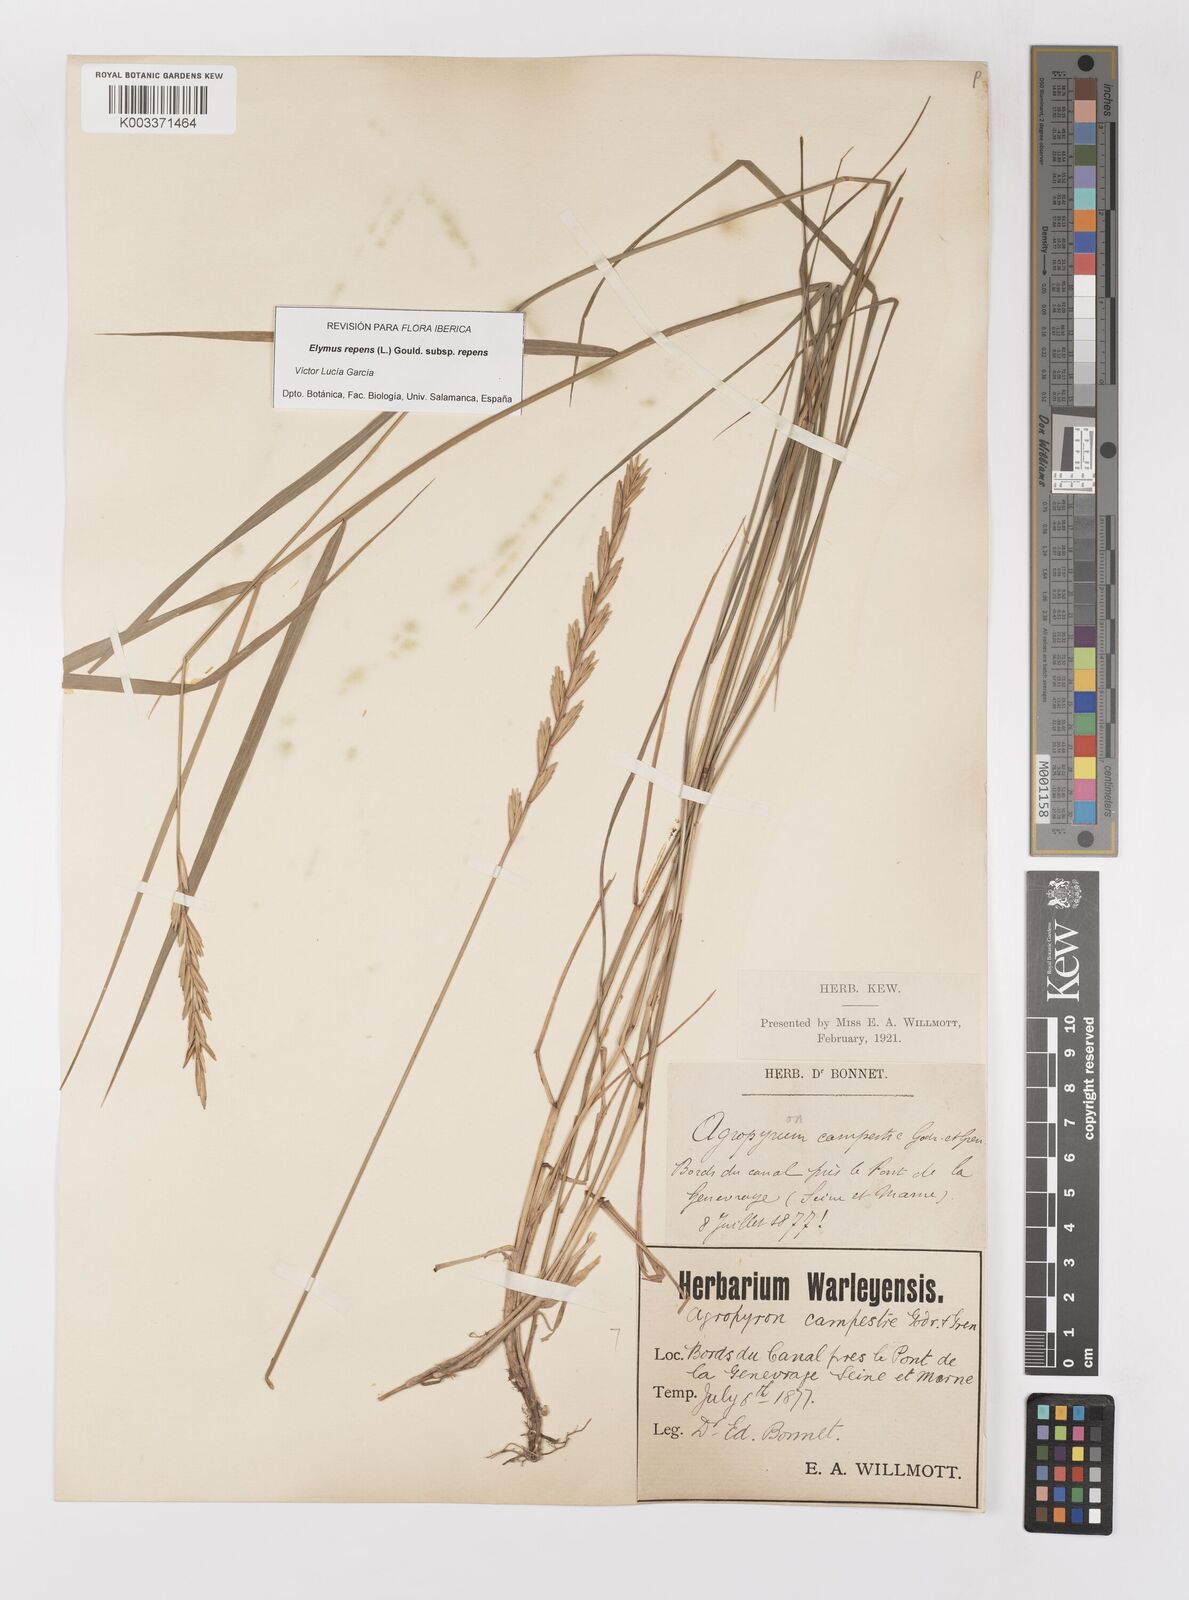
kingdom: Plantae
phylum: Tracheophyta
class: Liliopsida
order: Poales
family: Poaceae
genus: Elymus
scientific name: Elymus repens
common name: Quackgrass
